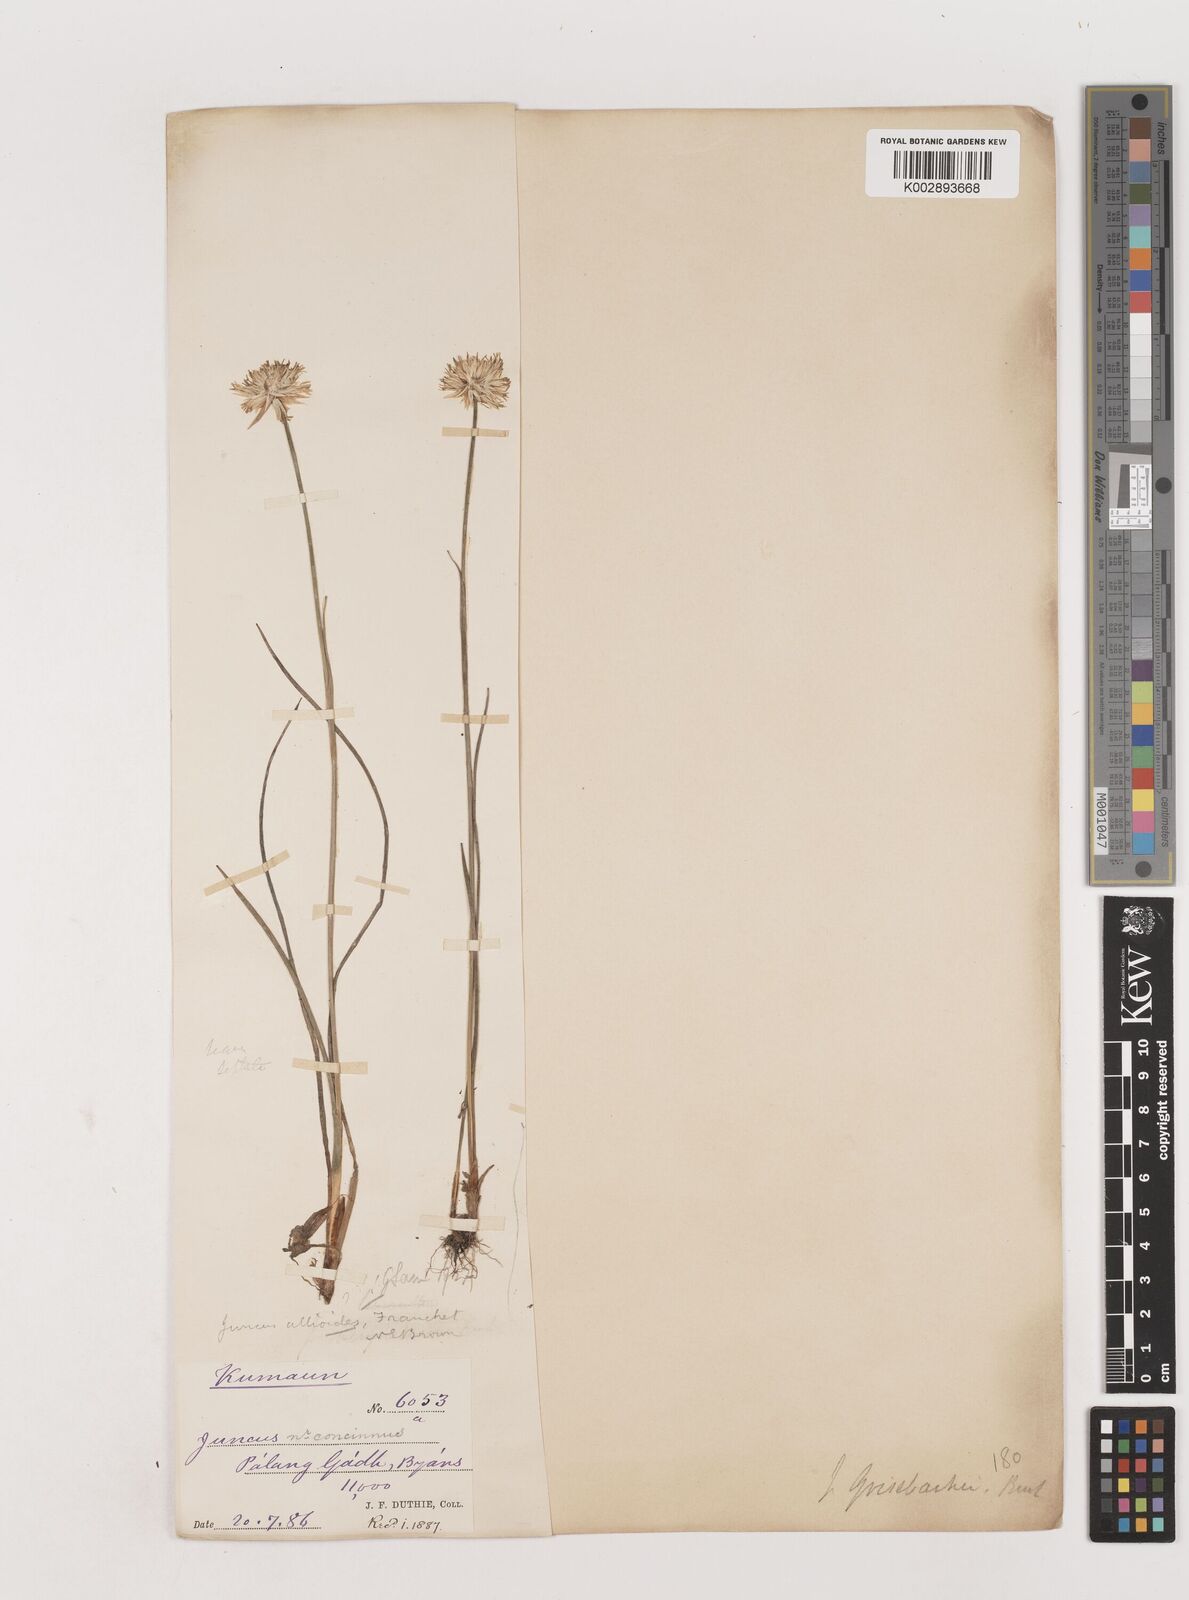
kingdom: Plantae
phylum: Tracheophyta
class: Liliopsida
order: Poales
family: Juncaceae
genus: Juncus
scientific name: Juncus allioides
